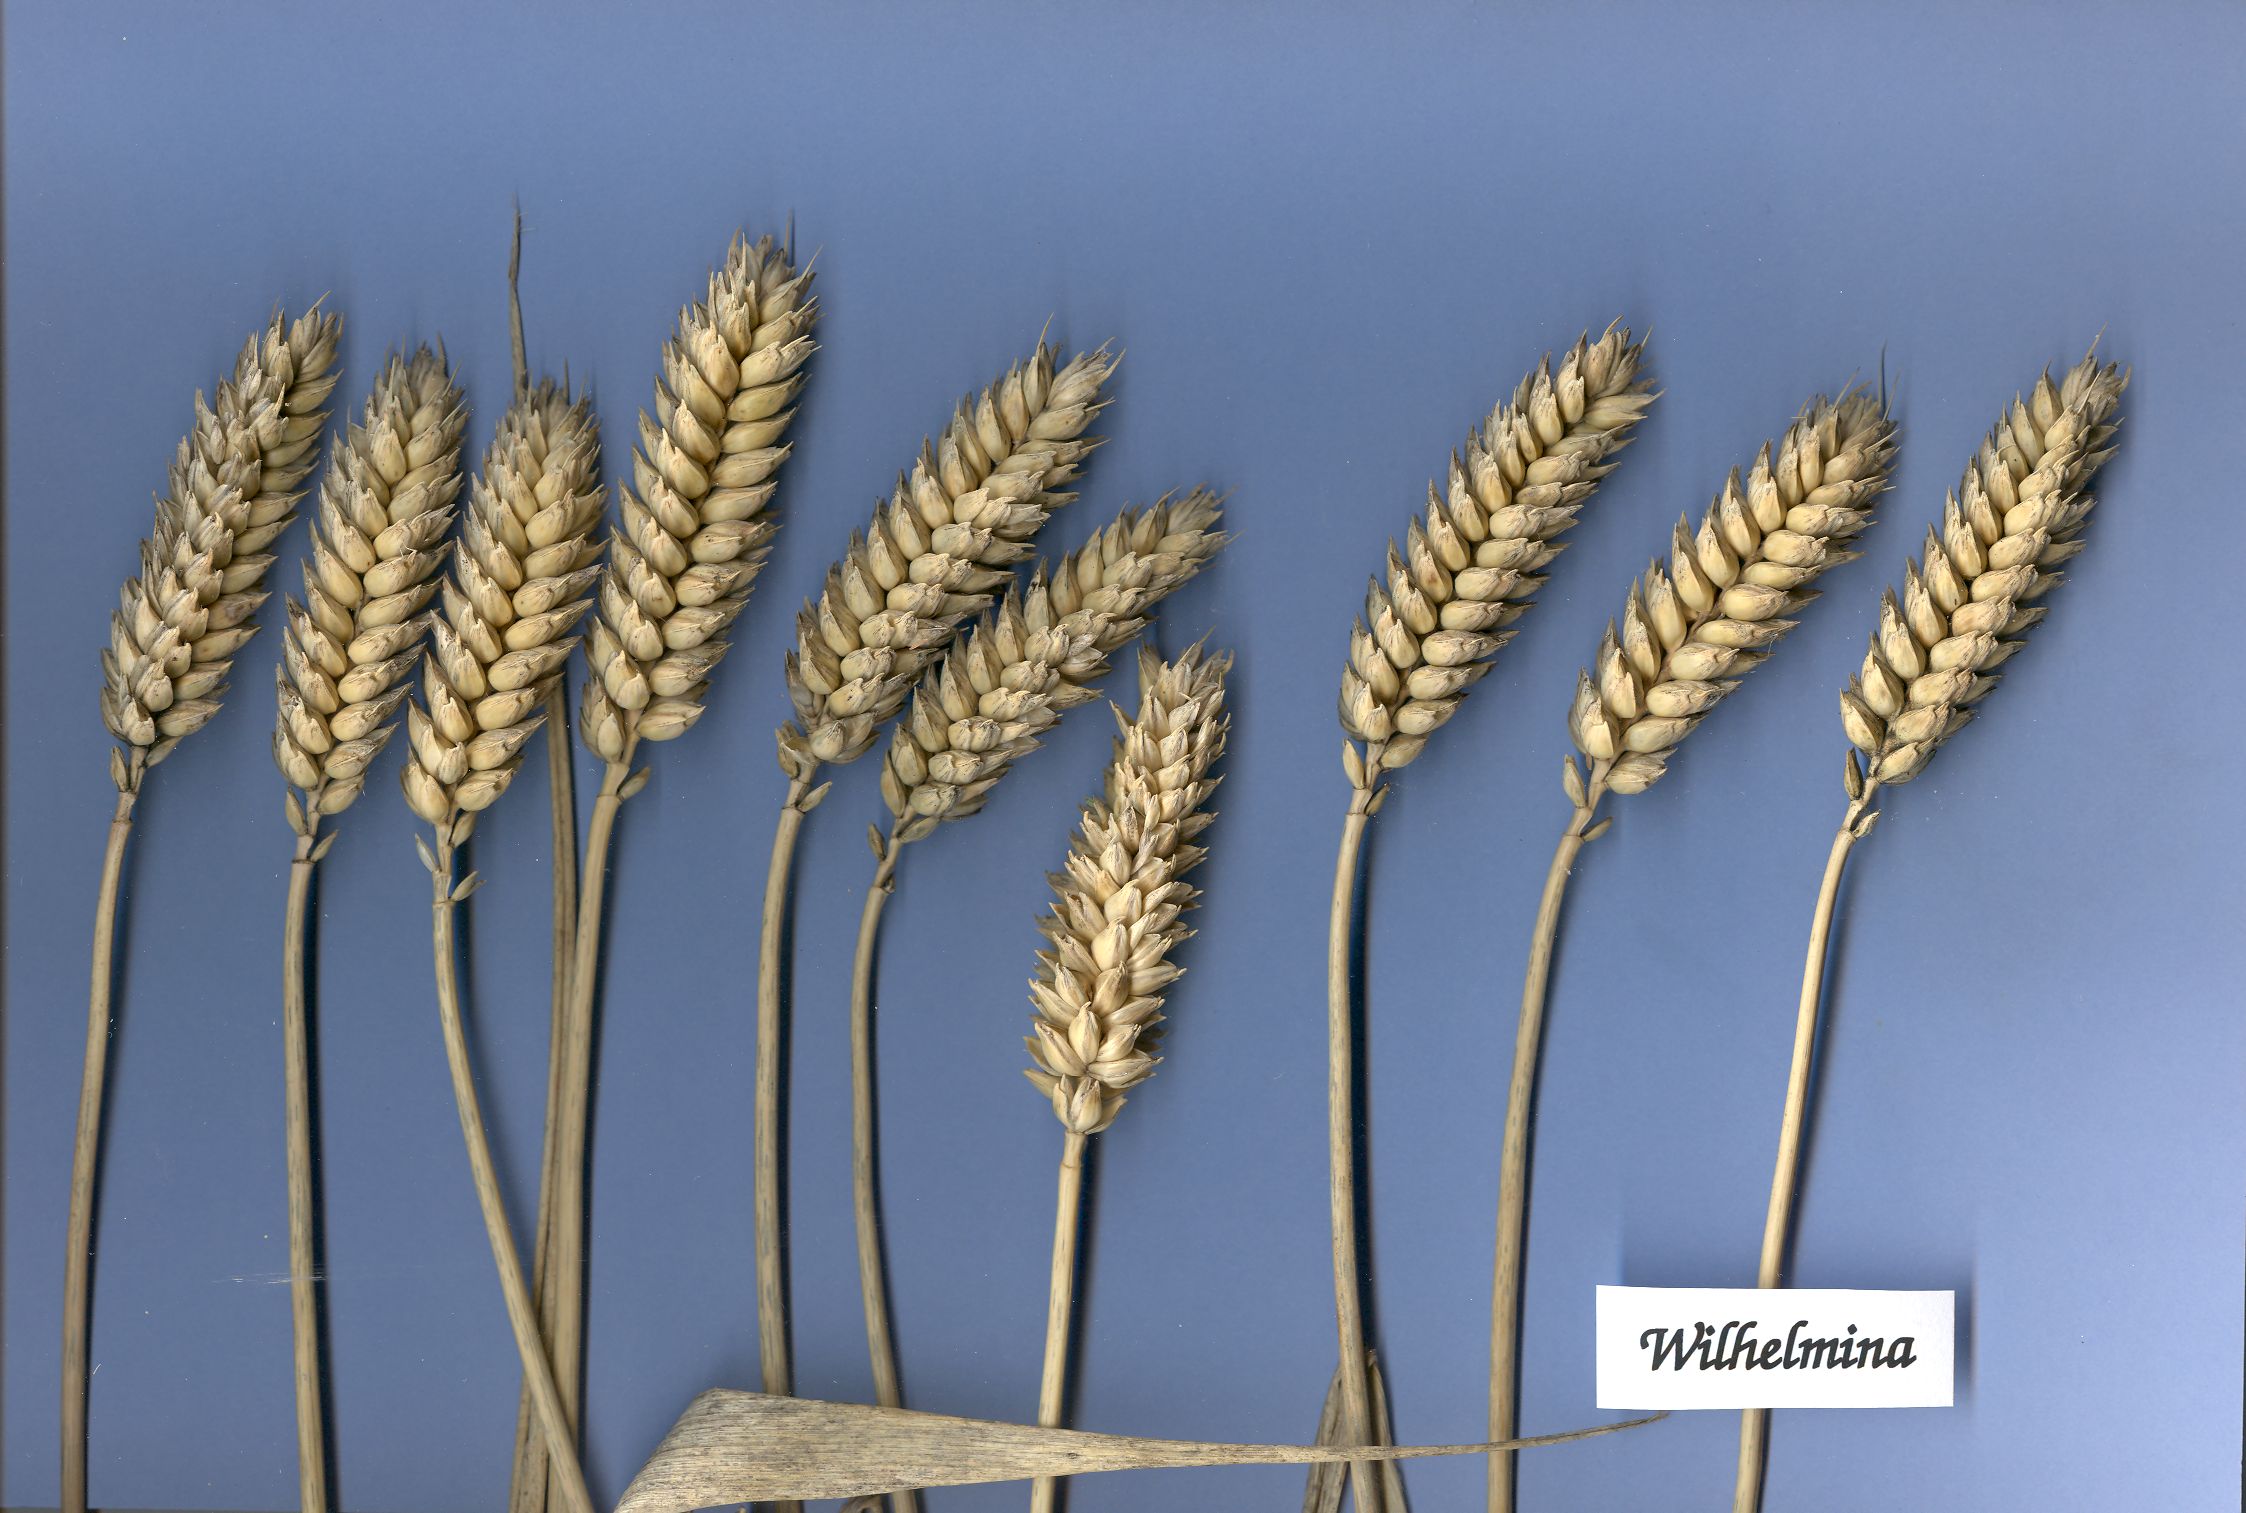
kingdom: Plantae
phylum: Tracheophyta
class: Liliopsida
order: Poales
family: Poaceae
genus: Triticum
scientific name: Triticum aestivum
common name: Common wheat
